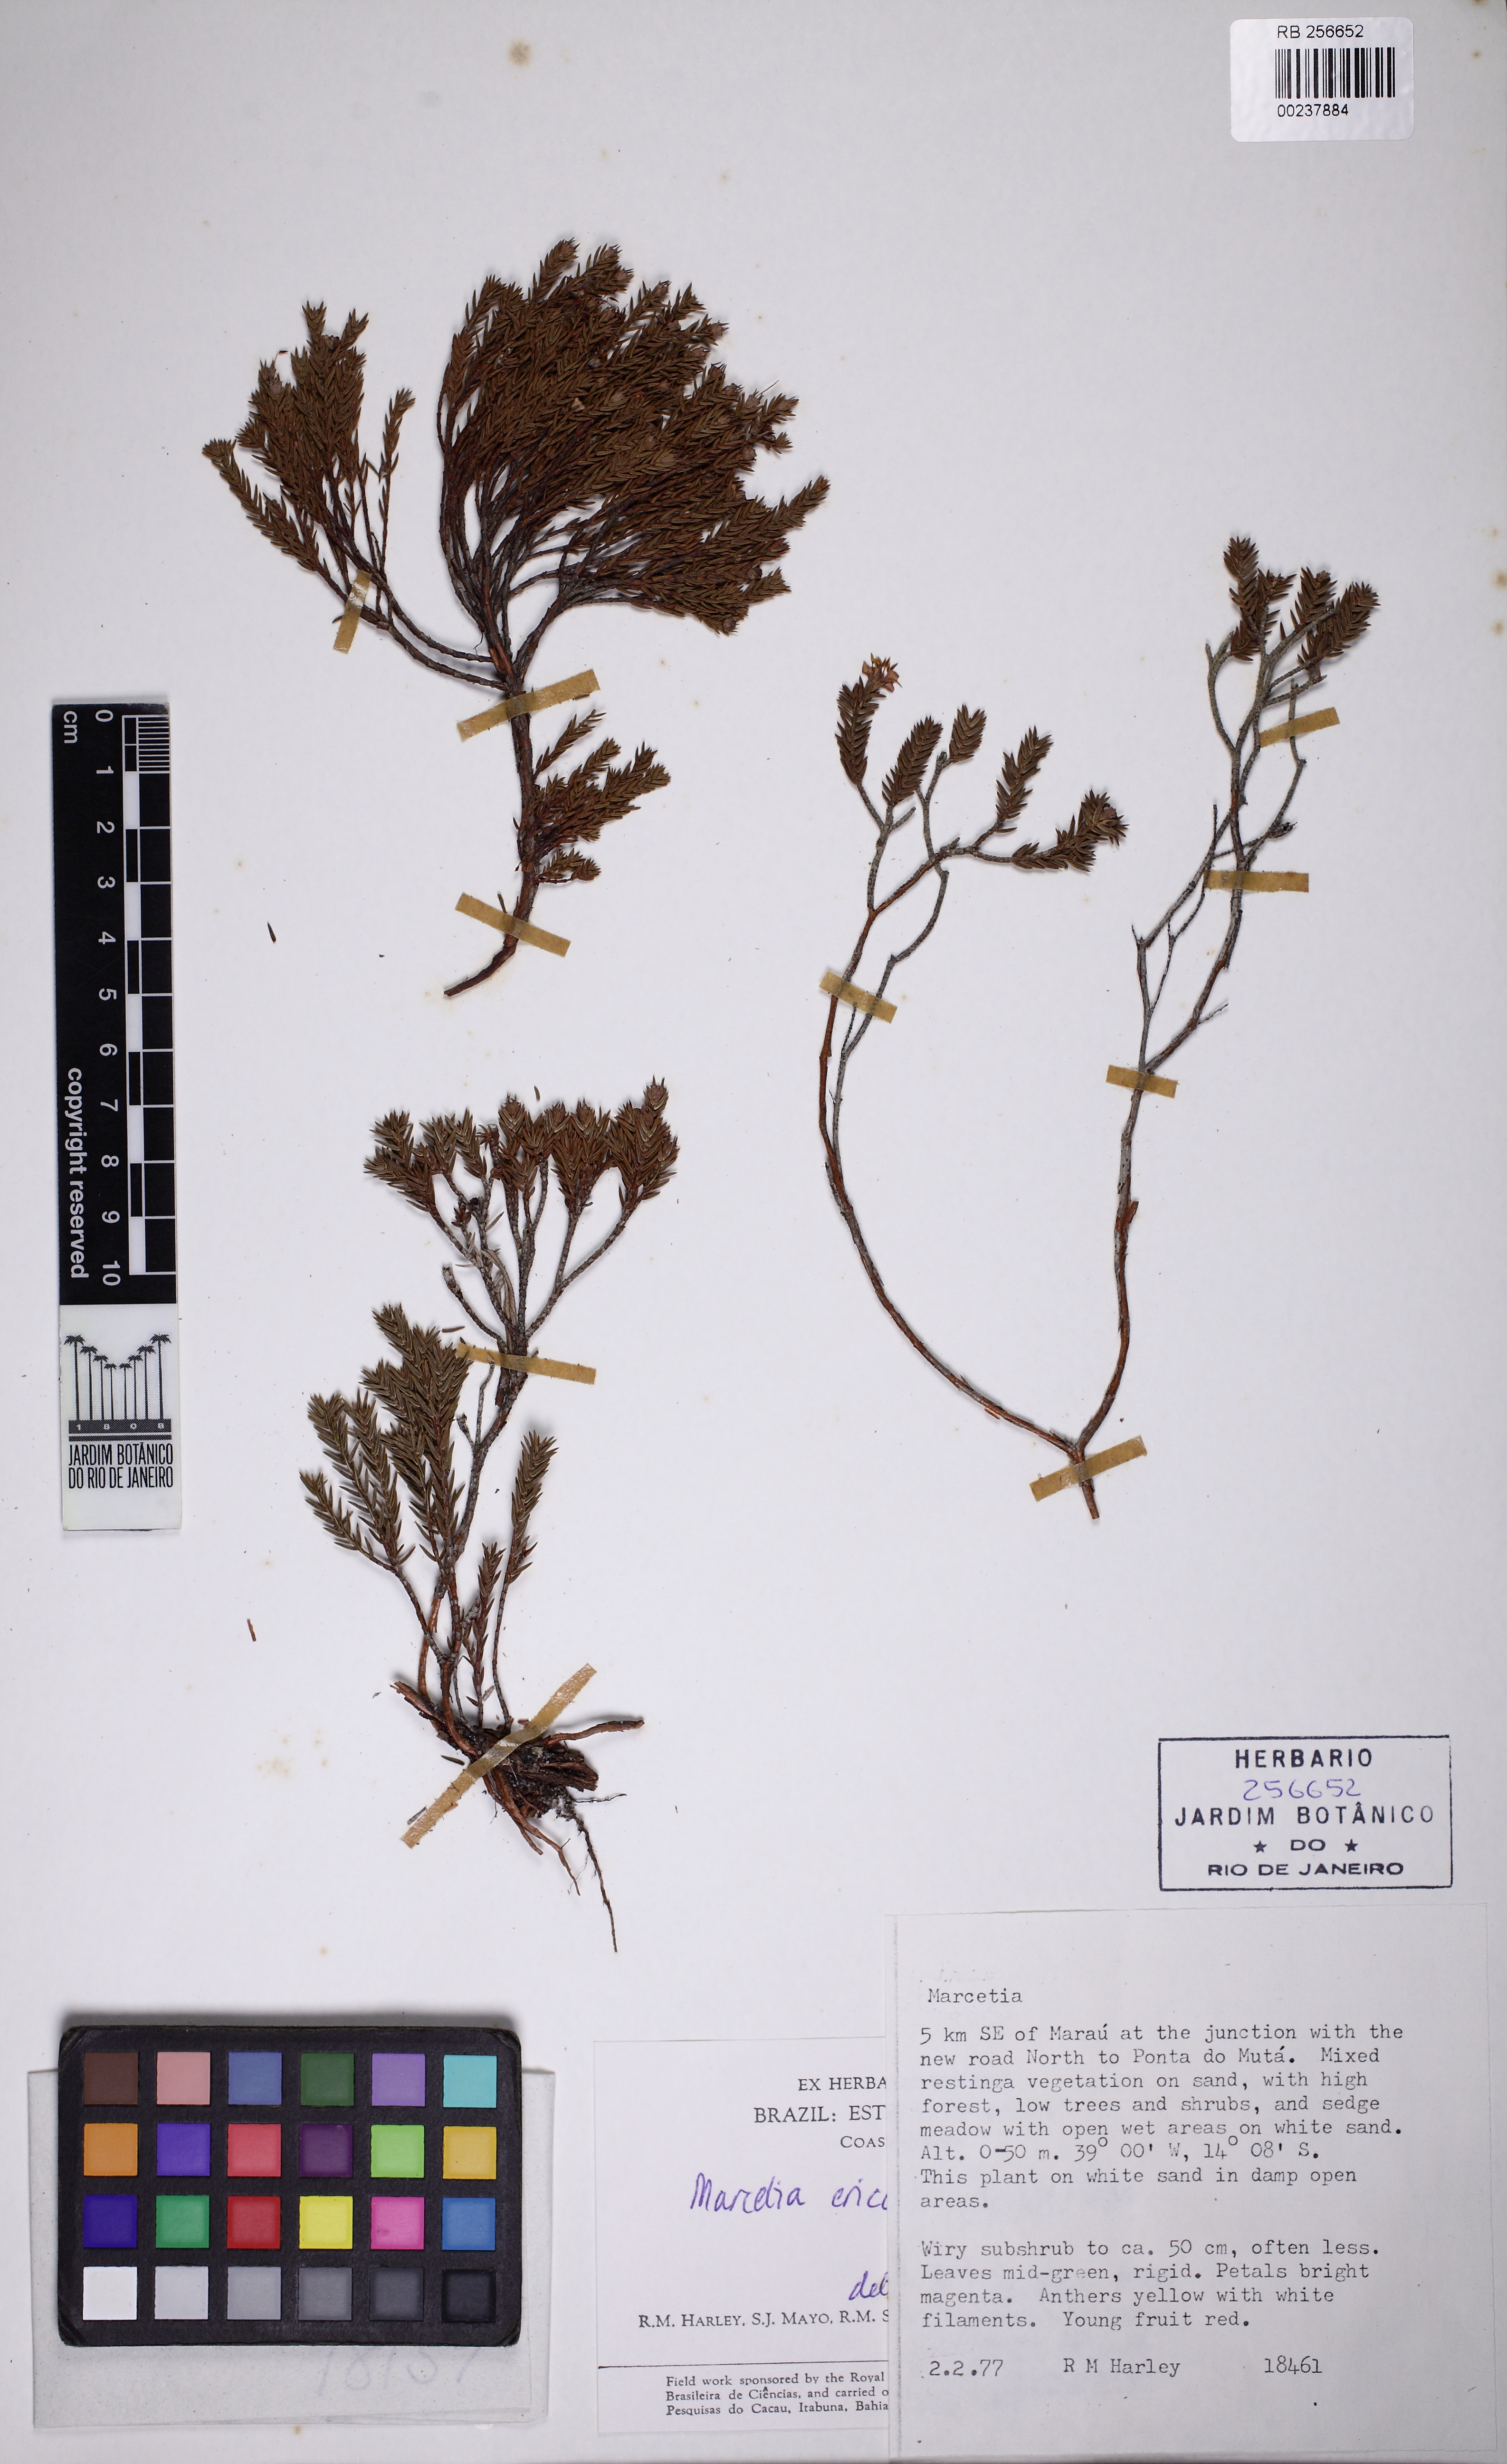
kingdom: Plantae
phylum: Tracheophyta
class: Magnoliopsida
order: Myrtales
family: Melastomataceae
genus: Marcetia
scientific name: Marcetia ericoides
